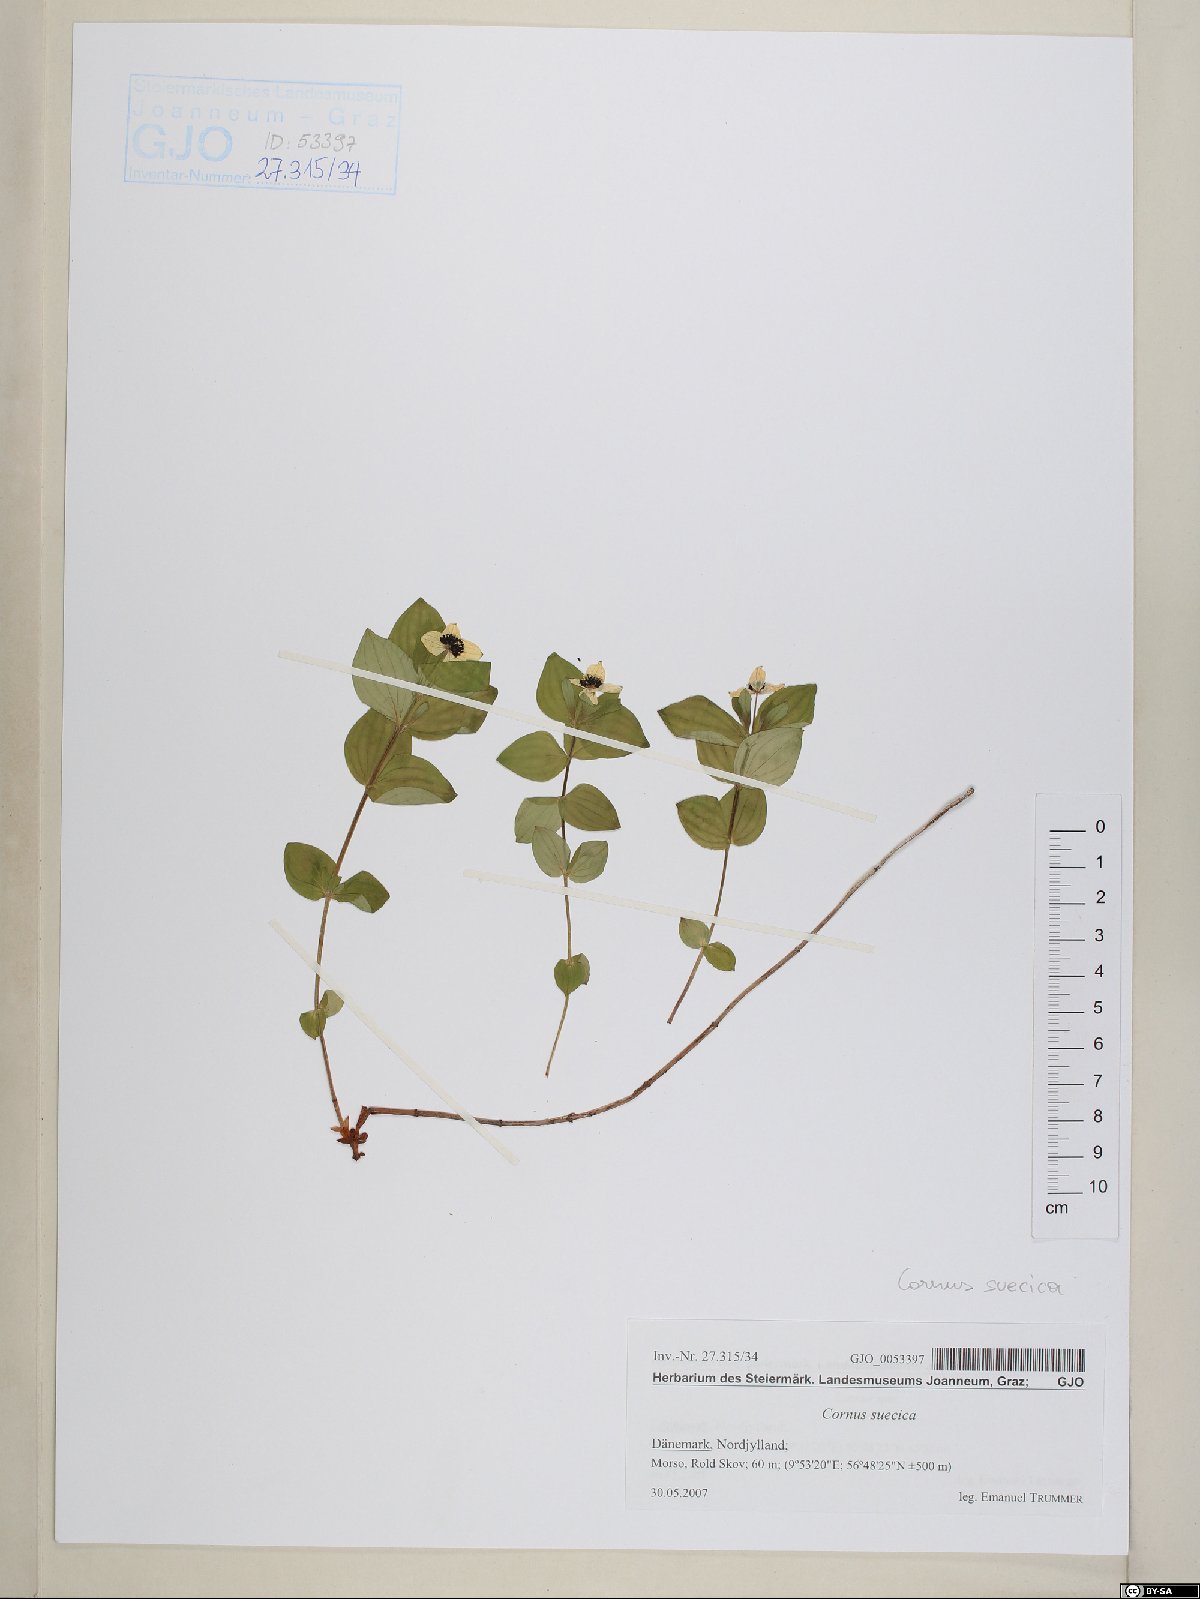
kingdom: Plantae
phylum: Tracheophyta
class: Magnoliopsida
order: Cornales
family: Cornaceae
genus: Cornus
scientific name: Cornus suecica
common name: Dwarf cornel
